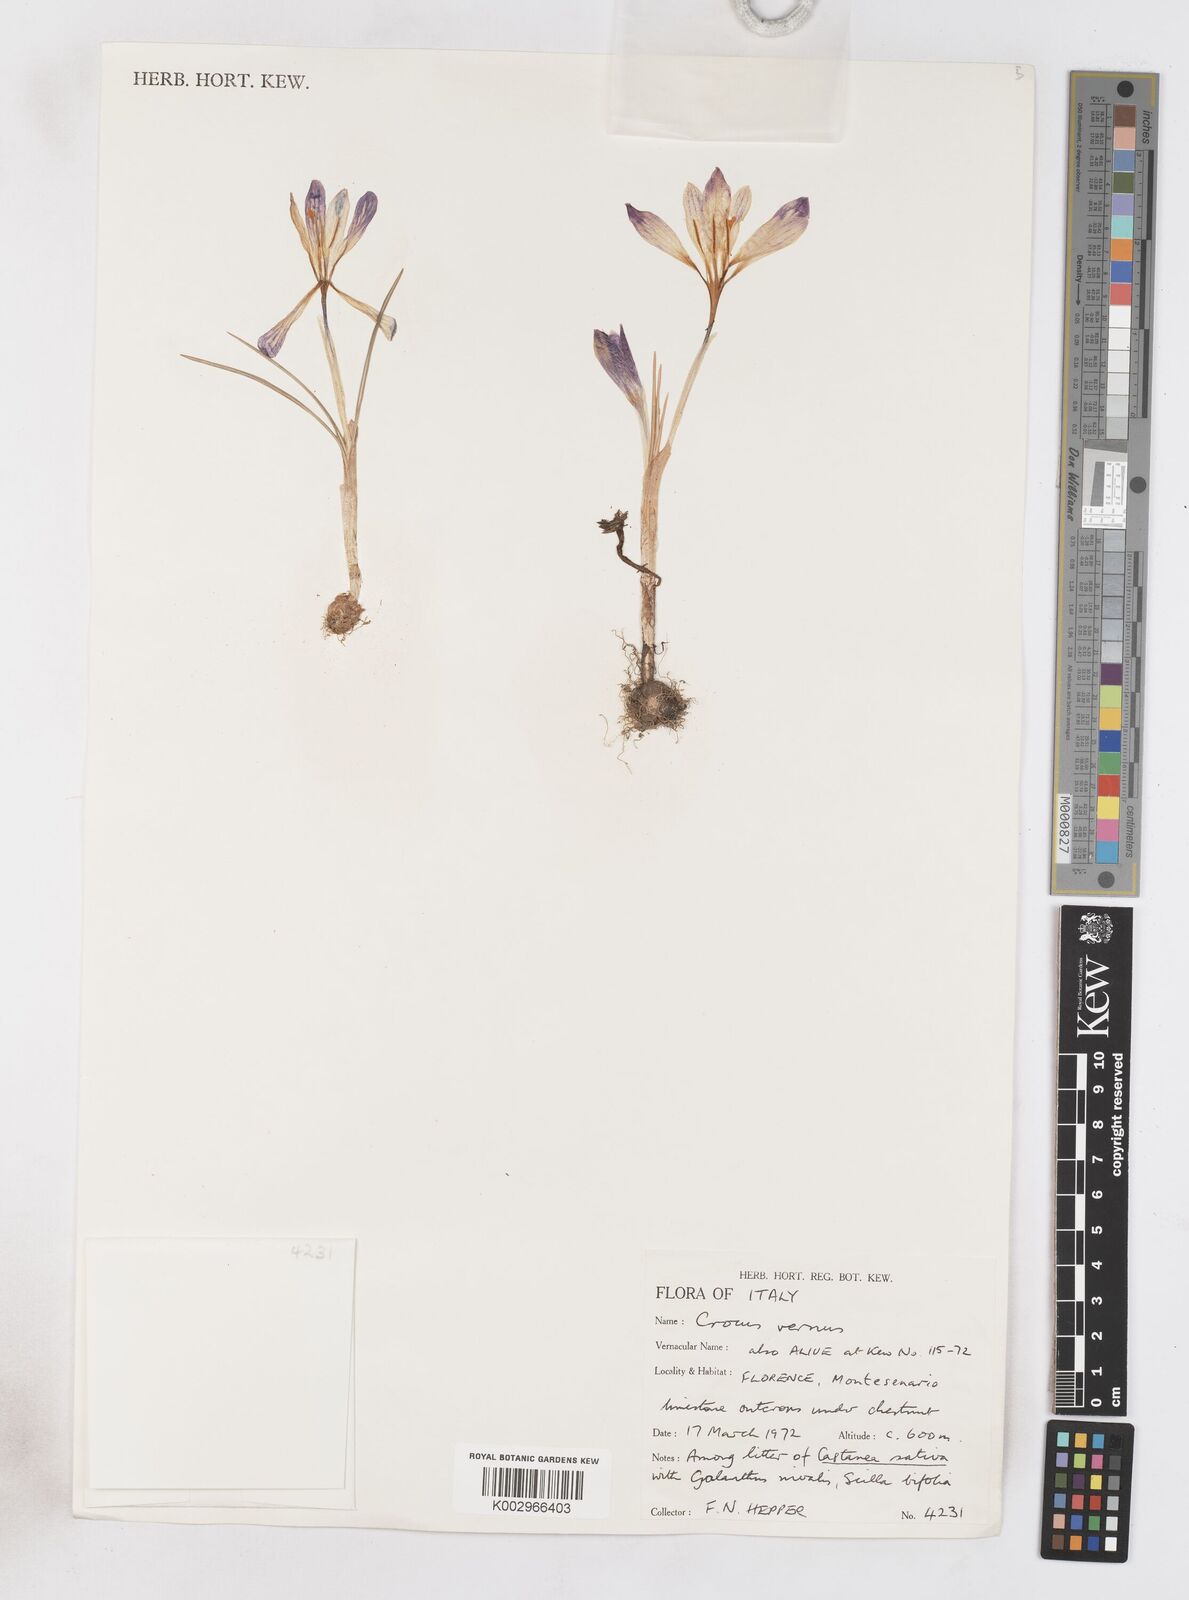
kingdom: Plantae
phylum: Tracheophyta
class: Liliopsida
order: Asparagales
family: Iridaceae
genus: Crocus
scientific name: Crocus vernus
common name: Spring crocus
